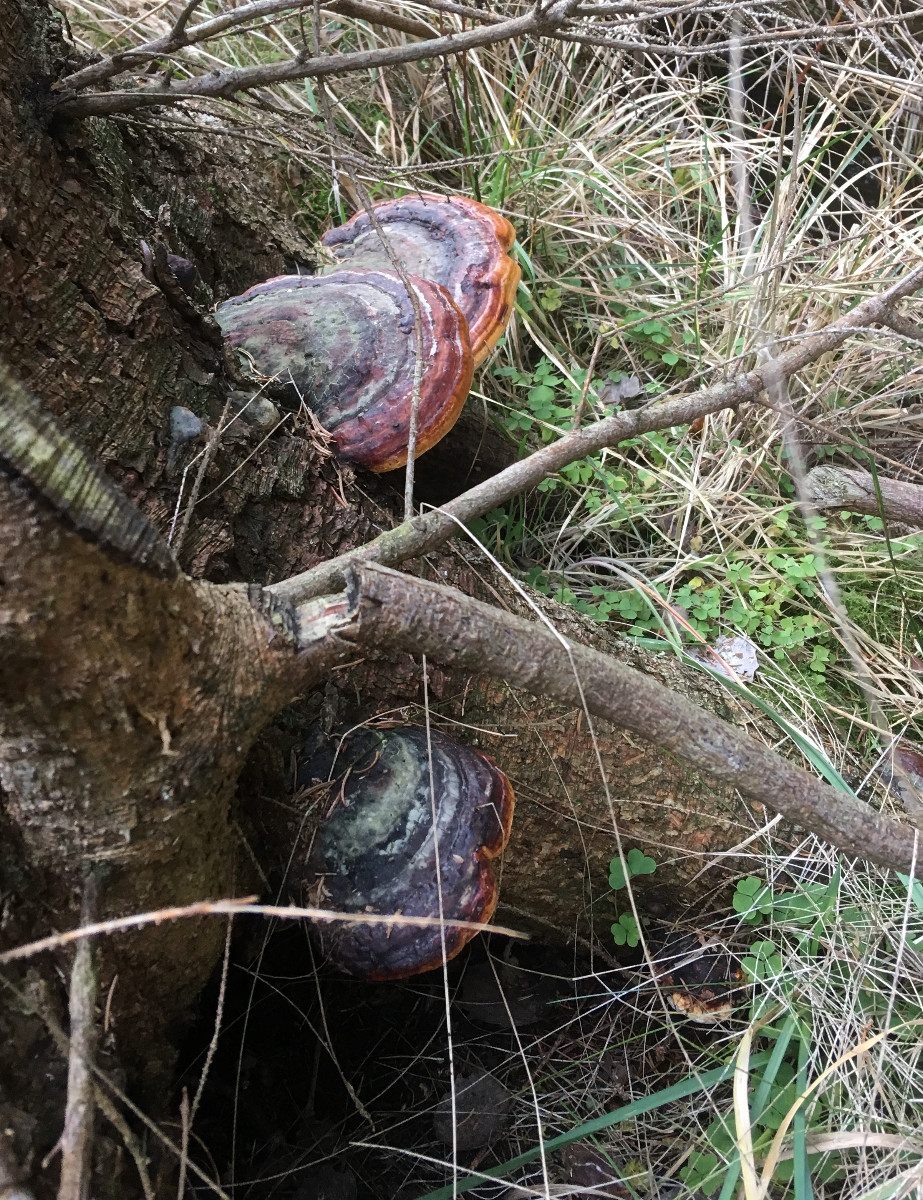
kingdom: Fungi
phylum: Basidiomycota
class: Agaricomycetes
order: Polyporales
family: Fomitopsidaceae
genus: Fomitopsis
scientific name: Fomitopsis pinicola
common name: randbæltet hovporesvamp
